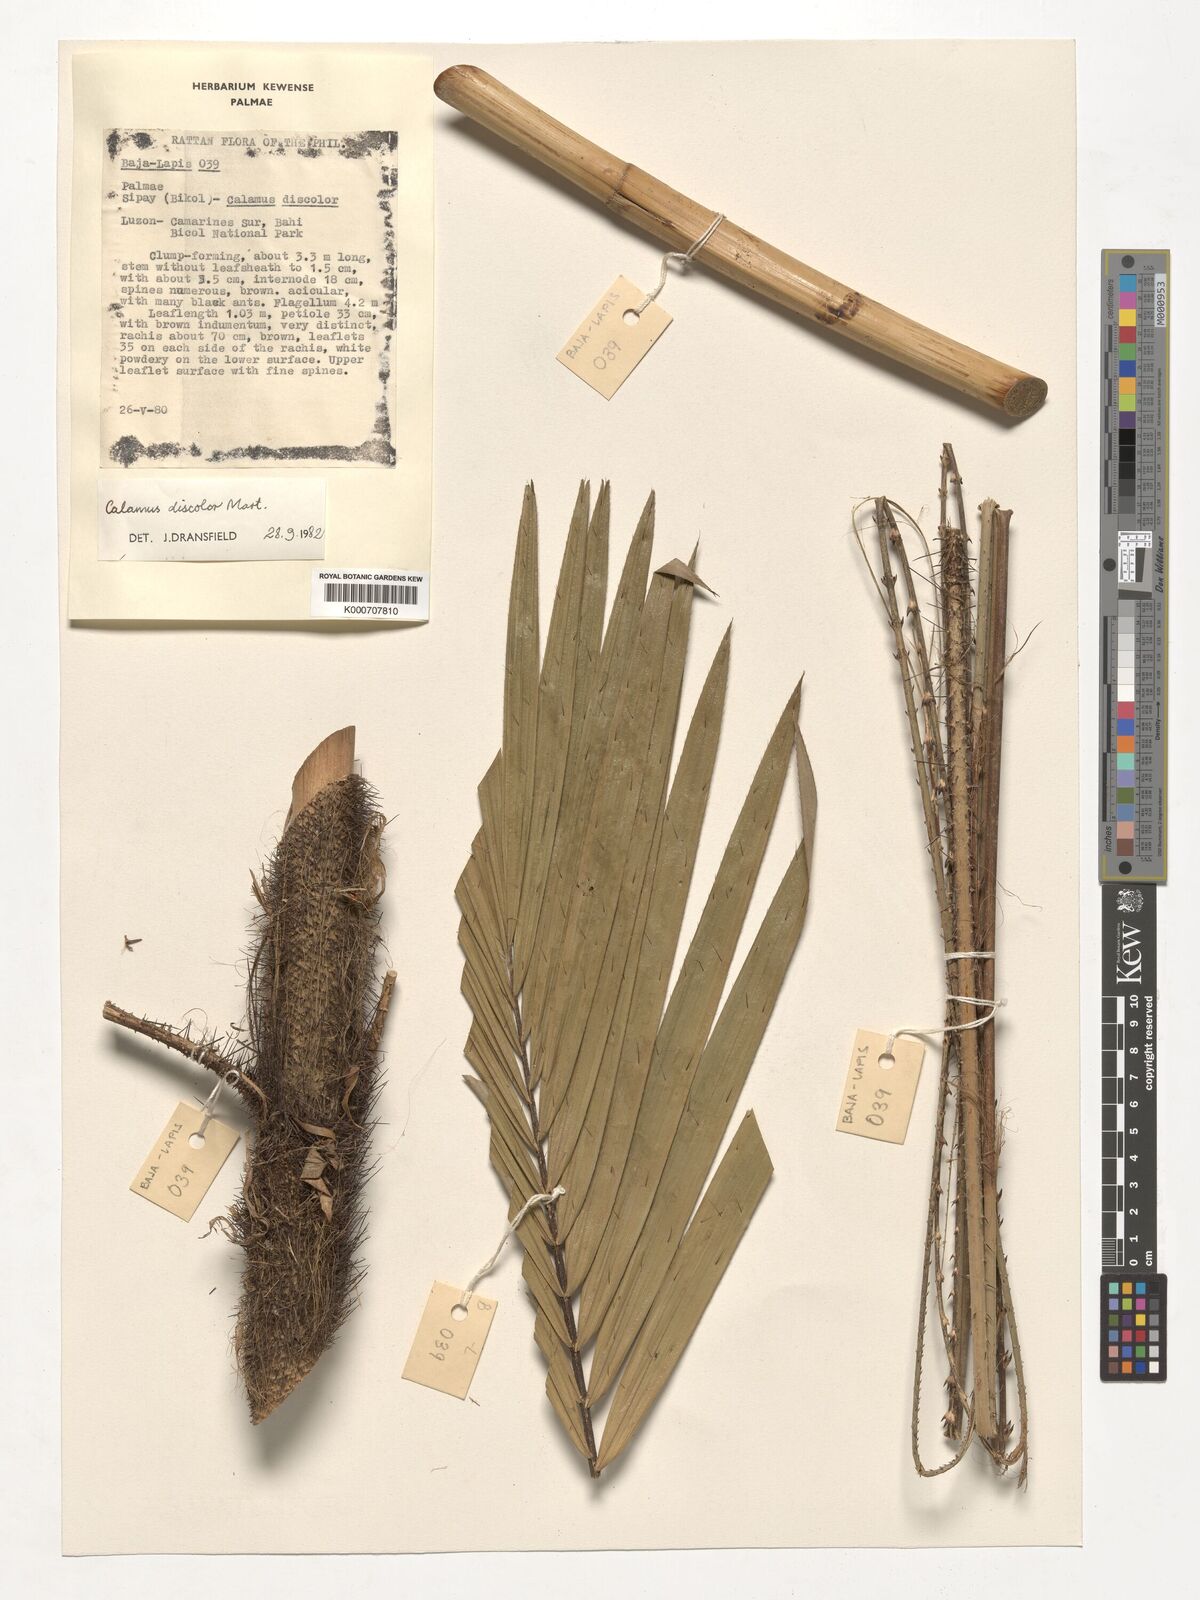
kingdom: Plantae
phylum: Tracheophyta
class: Liliopsida
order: Arecales
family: Arecaceae
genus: Calamus
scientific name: Calamus discolor
